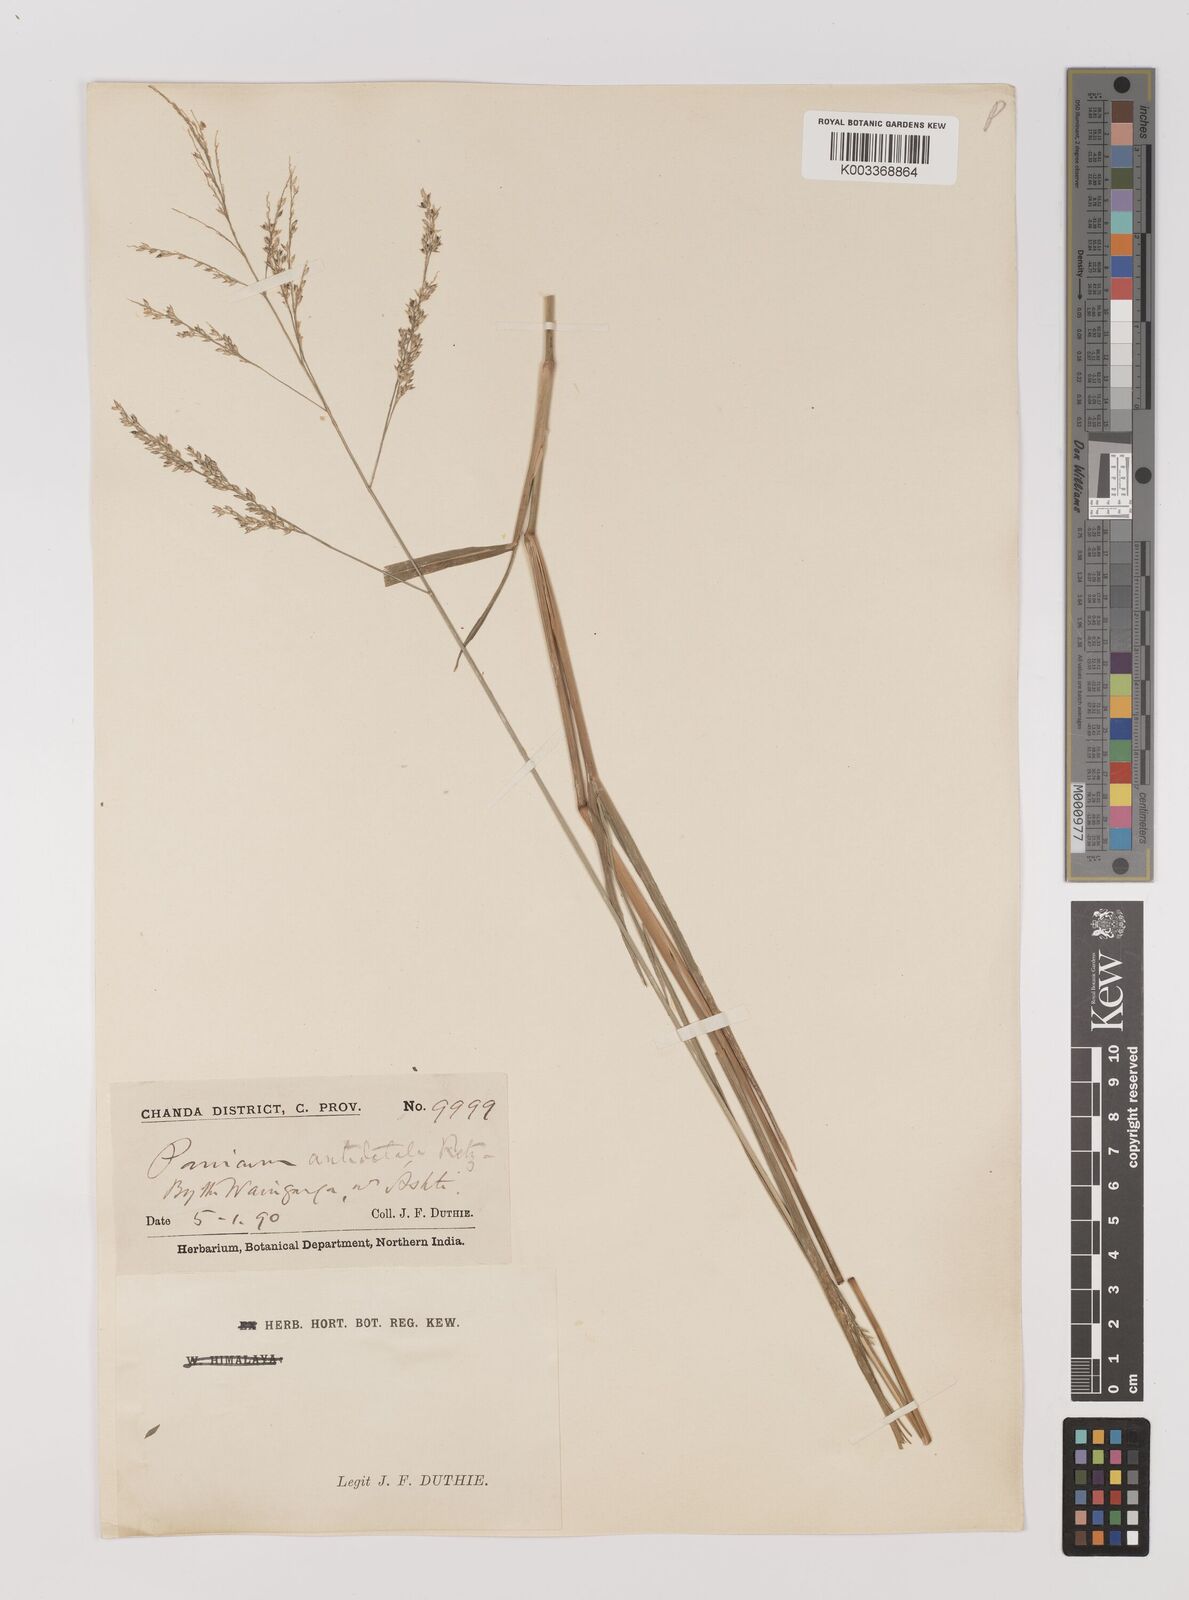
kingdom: Plantae
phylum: Tracheophyta
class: Liliopsida
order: Poales
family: Poaceae
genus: Panicum
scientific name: Panicum
